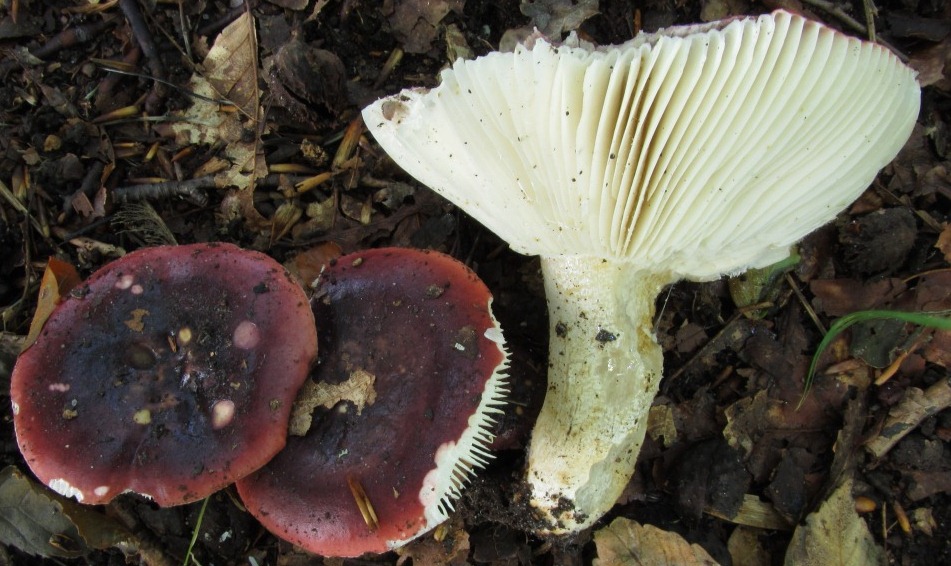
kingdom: Fungi
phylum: Basidiomycota
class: Agaricomycetes
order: Russulales
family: Russulaceae
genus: Russula
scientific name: Russula atropurpurea
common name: purpurbroget skørhat
